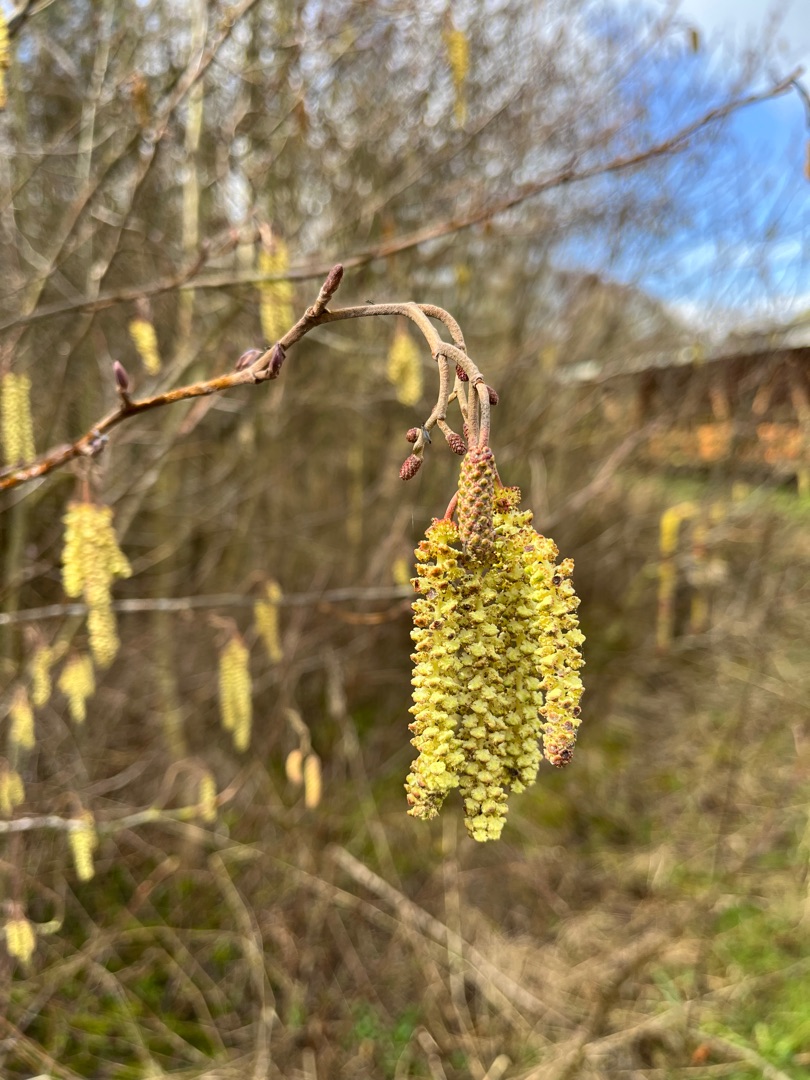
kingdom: Plantae
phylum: Tracheophyta
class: Magnoliopsida
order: Fagales
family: Betulaceae
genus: Alnus
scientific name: Alnus glutinosa
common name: Rød-el
